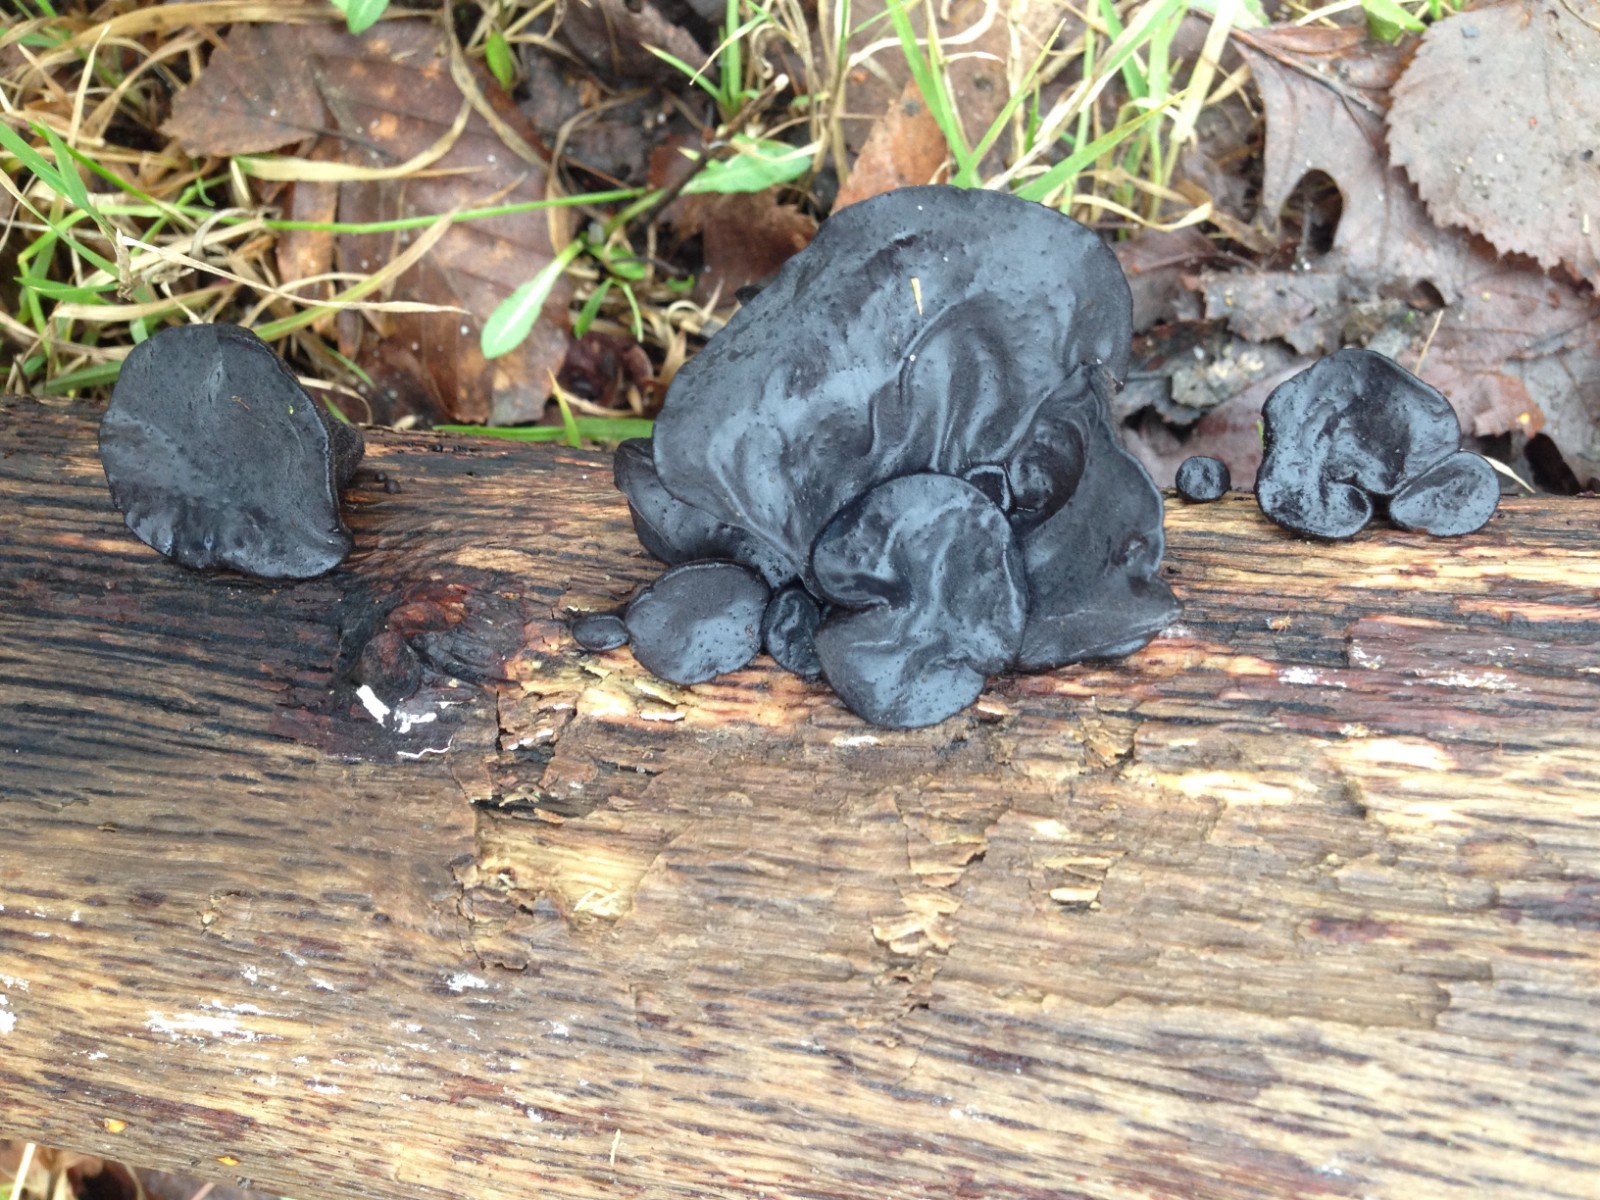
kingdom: Fungi
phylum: Basidiomycota
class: Agaricomycetes
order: Auriculariales
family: Auriculariaceae
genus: Exidia
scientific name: Exidia glandulosa
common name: ege-bævretop
